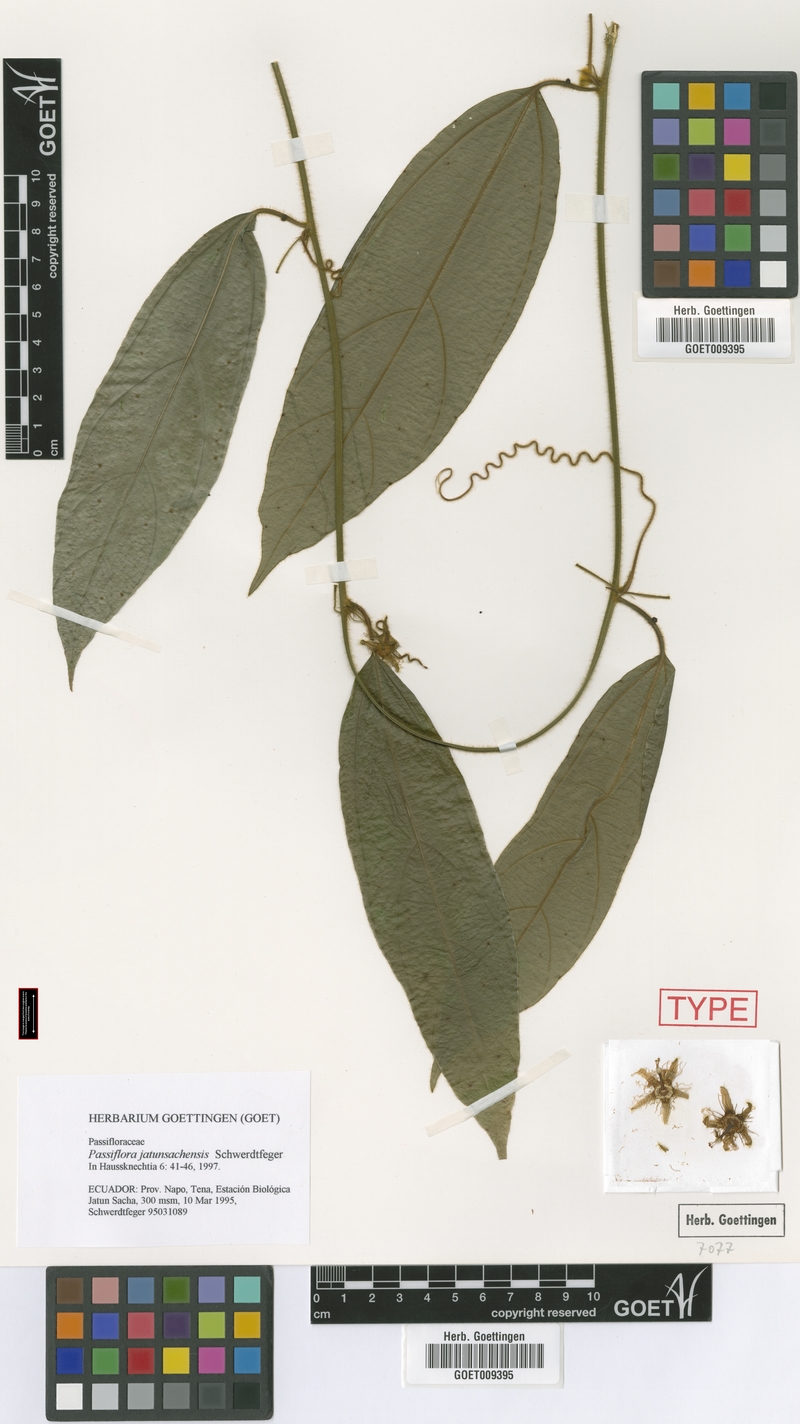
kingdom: Plantae
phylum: Tracheophyta
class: Magnoliopsida
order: Malpighiales
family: Passifloraceae
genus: Passiflora
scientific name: Passiflora jatunsachensis
